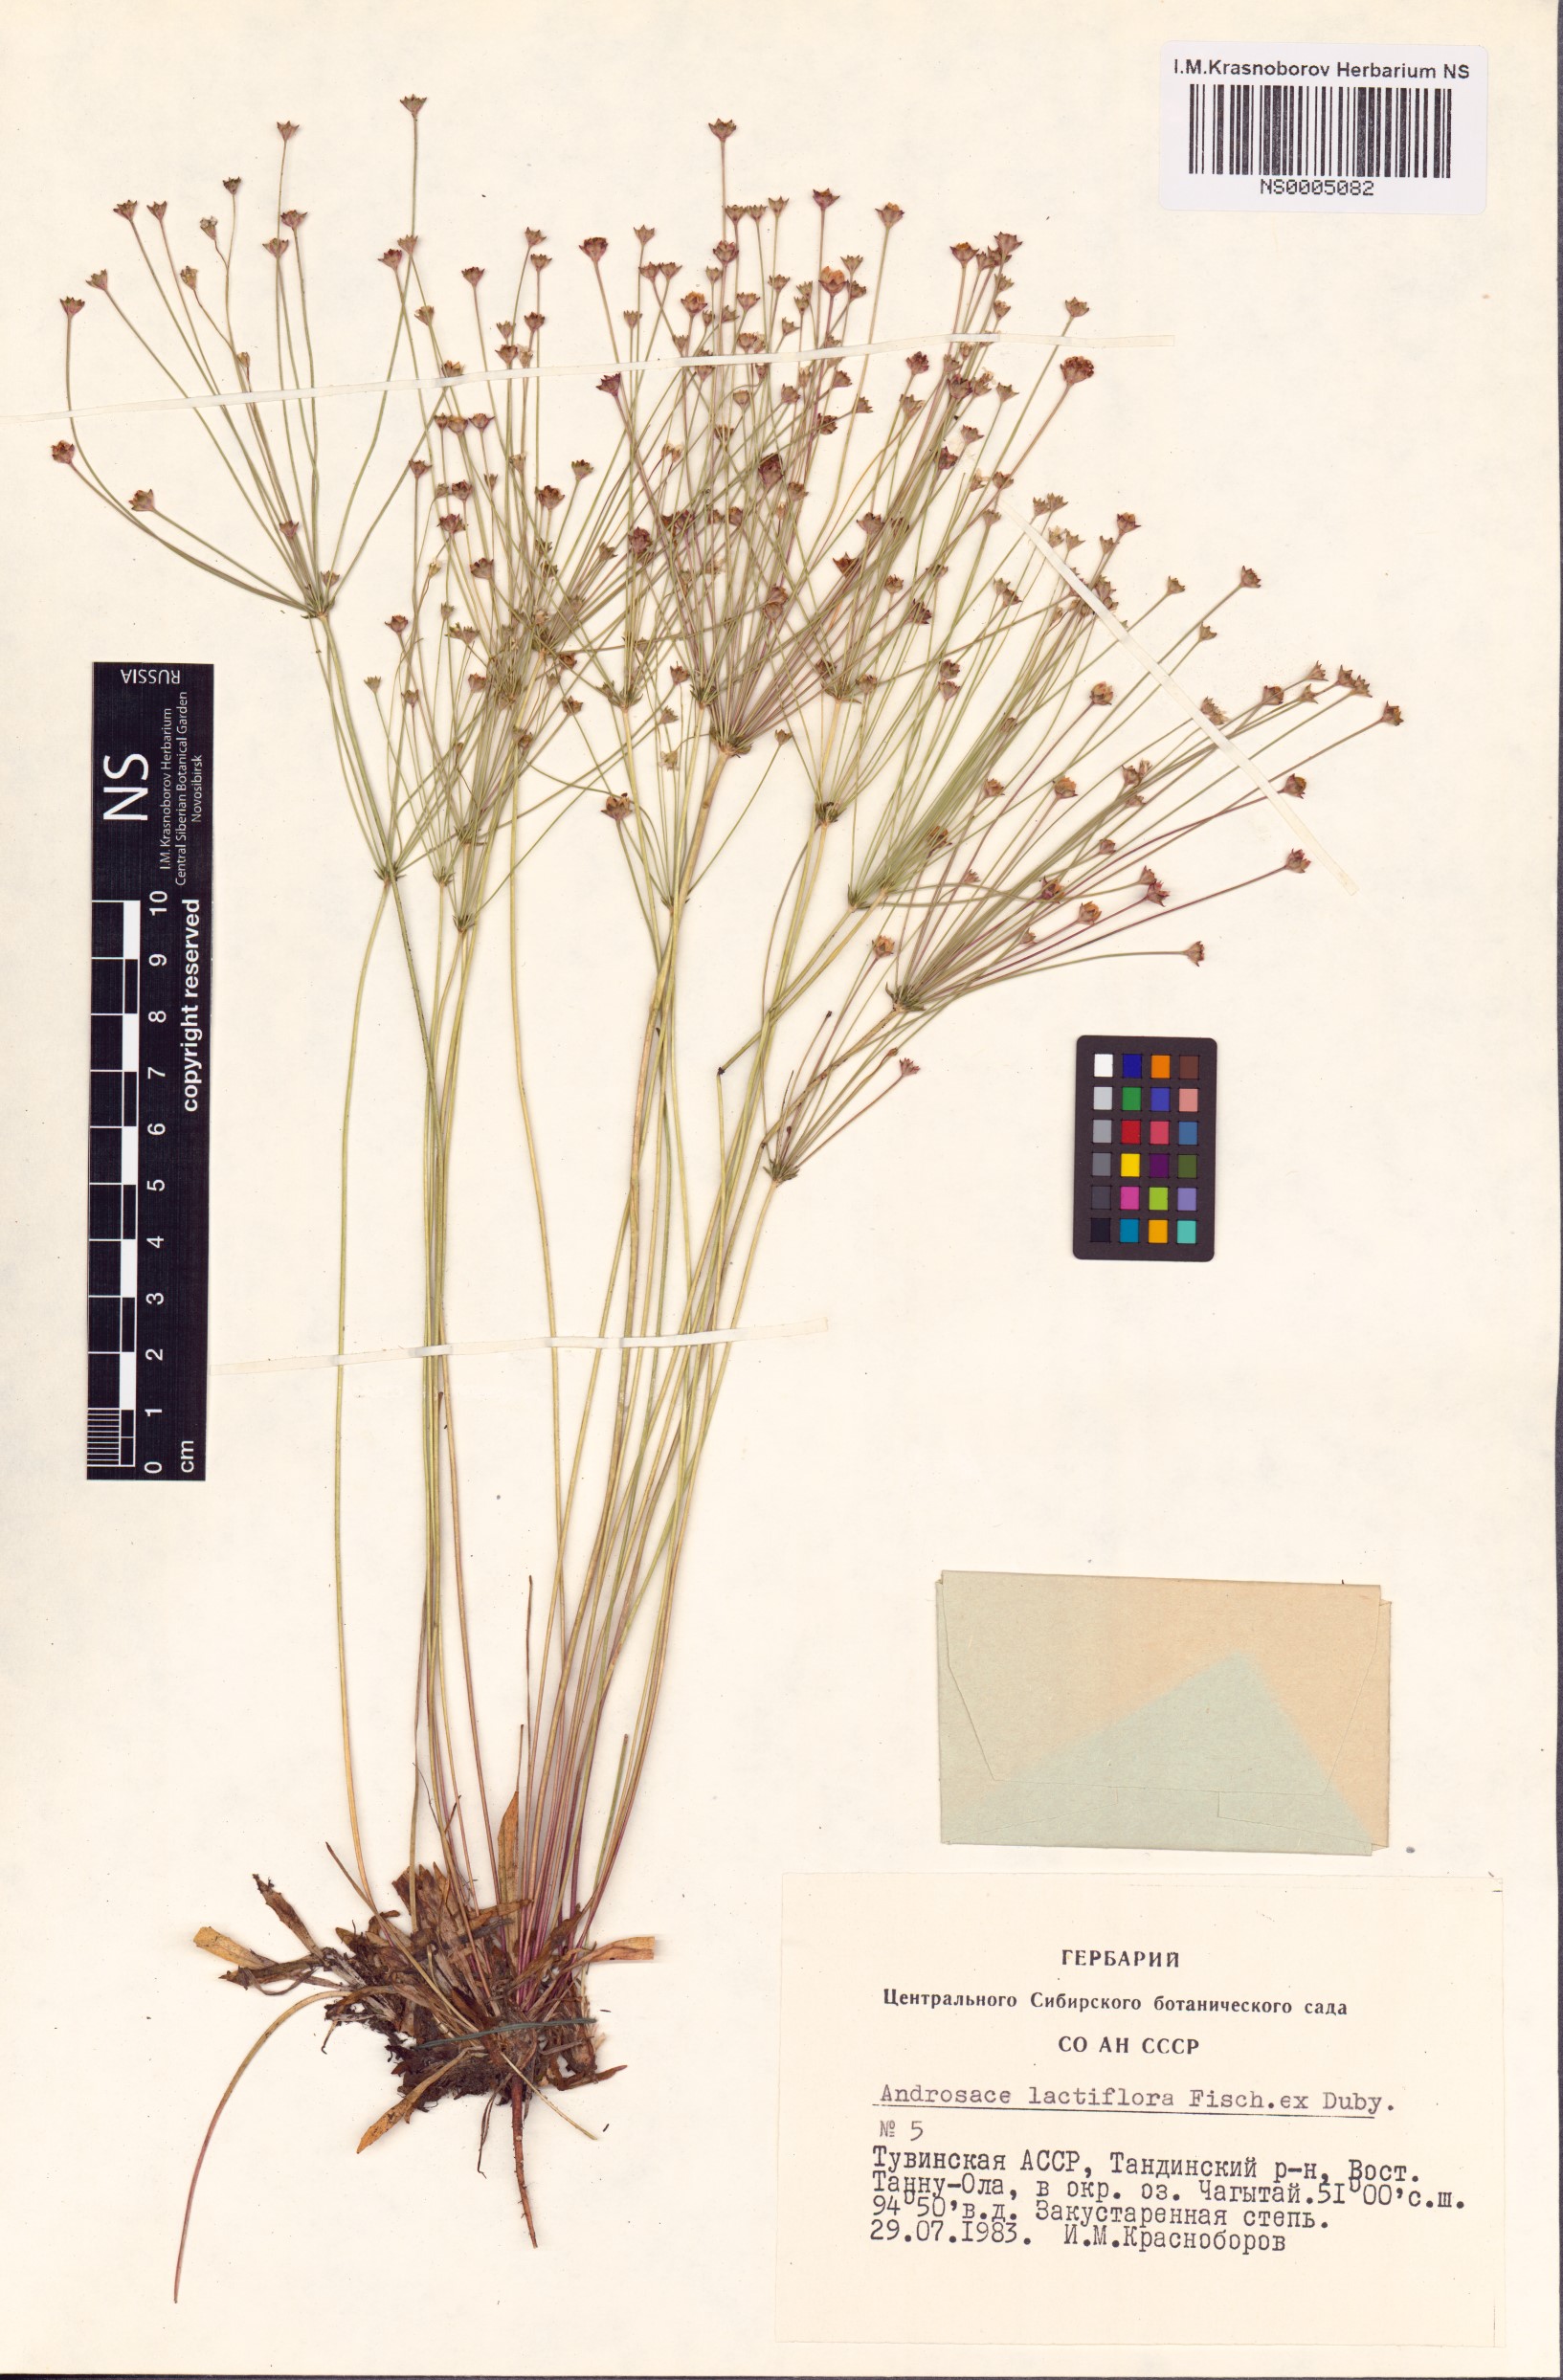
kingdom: Plantae
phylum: Tracheophyta
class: Magnoliopsida
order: Ericales
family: Primulaceae
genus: Androsace
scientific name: Androsace lactiflora
